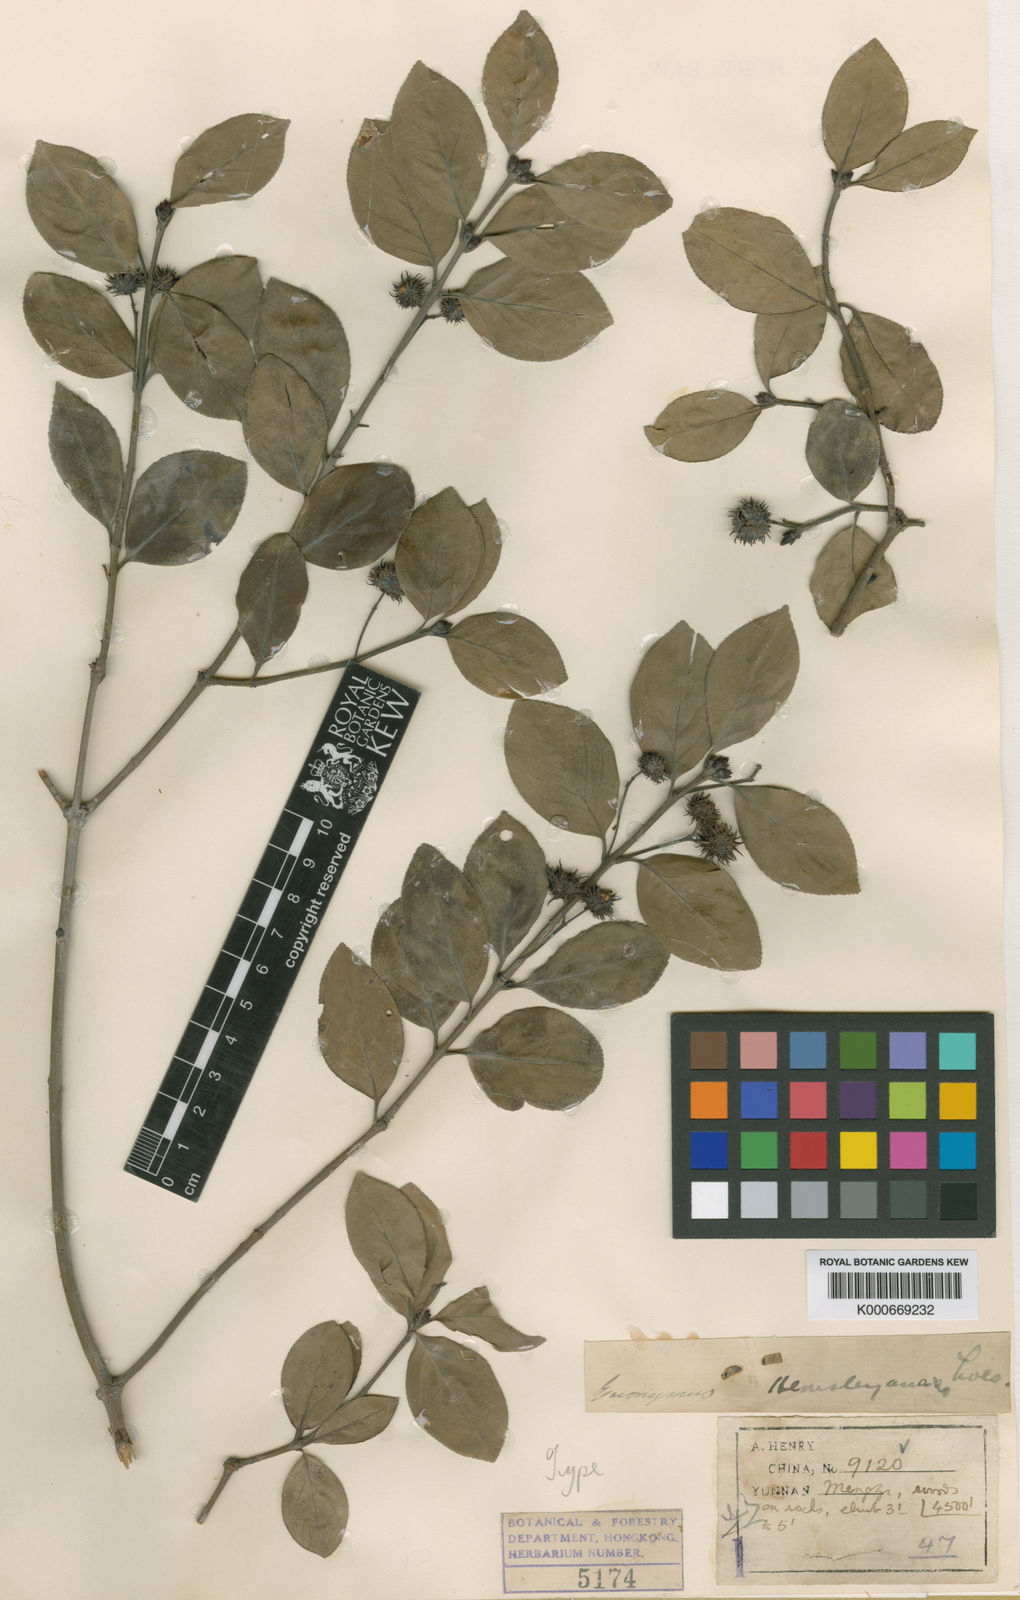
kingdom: Plantae
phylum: Tracheophyta
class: Magnoliopsida
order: Celastrales
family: Celastraceae
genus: Euonymus
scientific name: Euonymus actinocarpus
